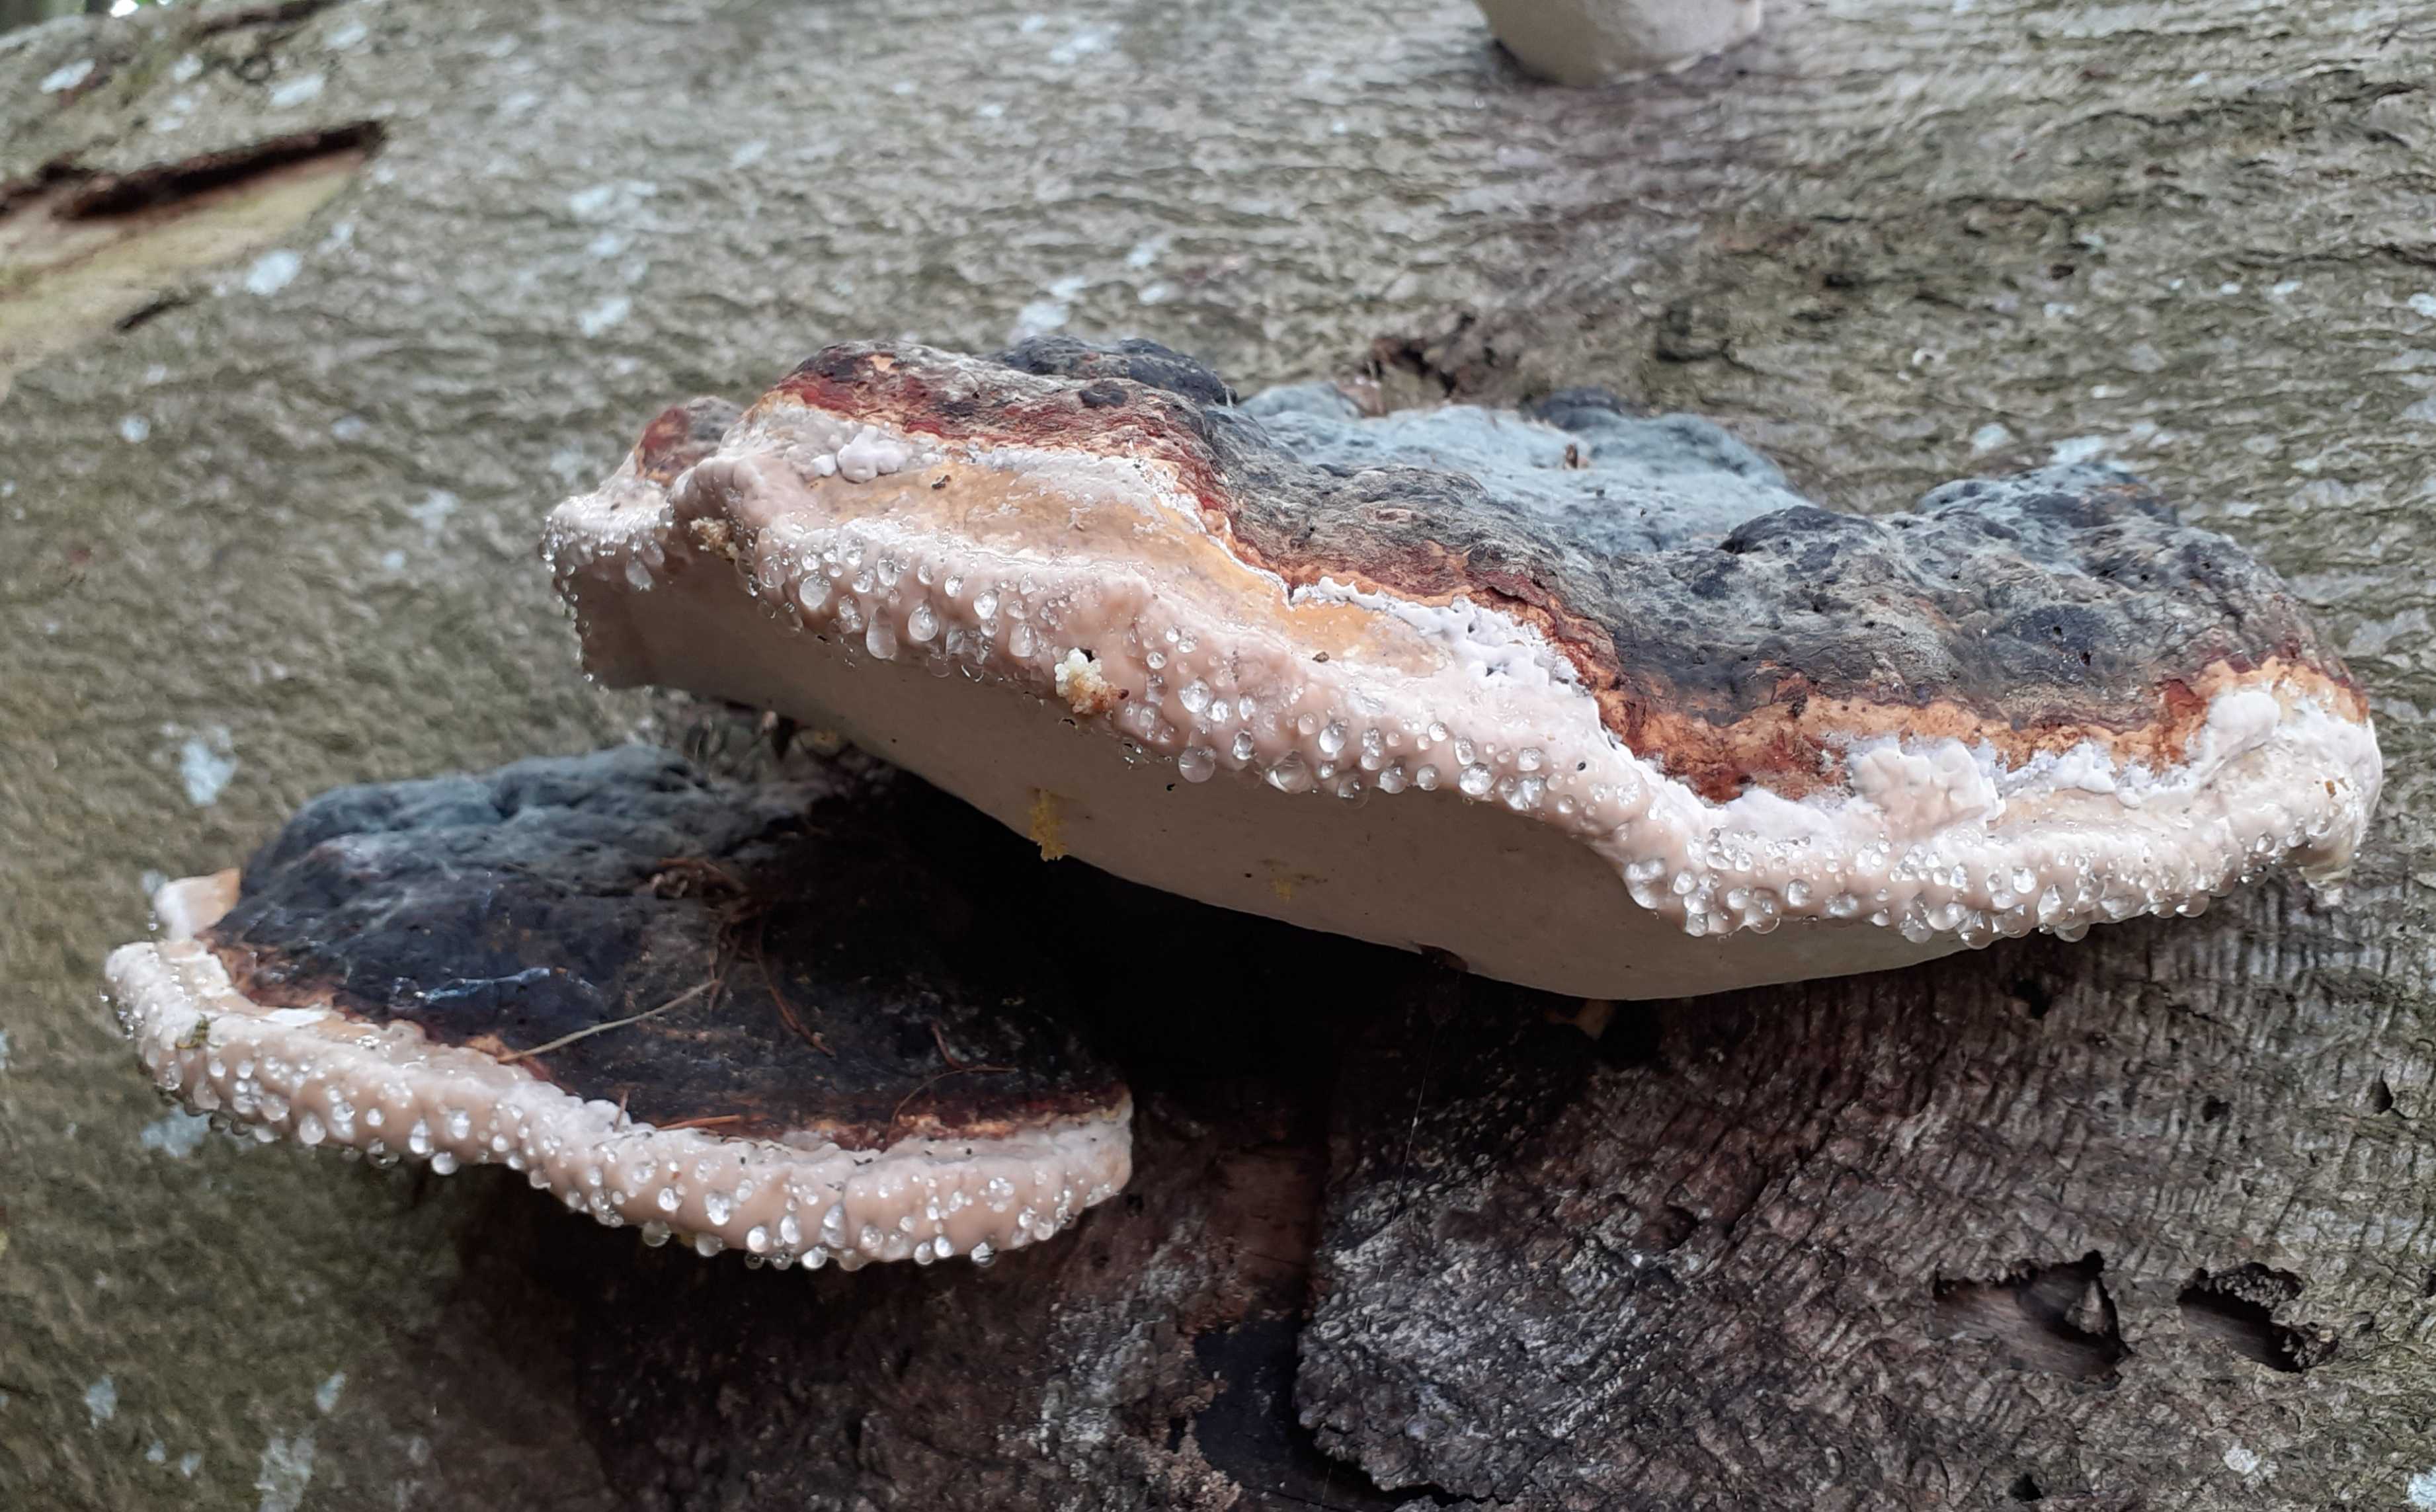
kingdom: Fungi
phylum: Basidiomycota
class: Agaricomycetes
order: Polyporales
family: Fomitopsidaceae
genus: Fomitopsis
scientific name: Fomitopsis pinicola
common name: randbæltet hovporesvamp
